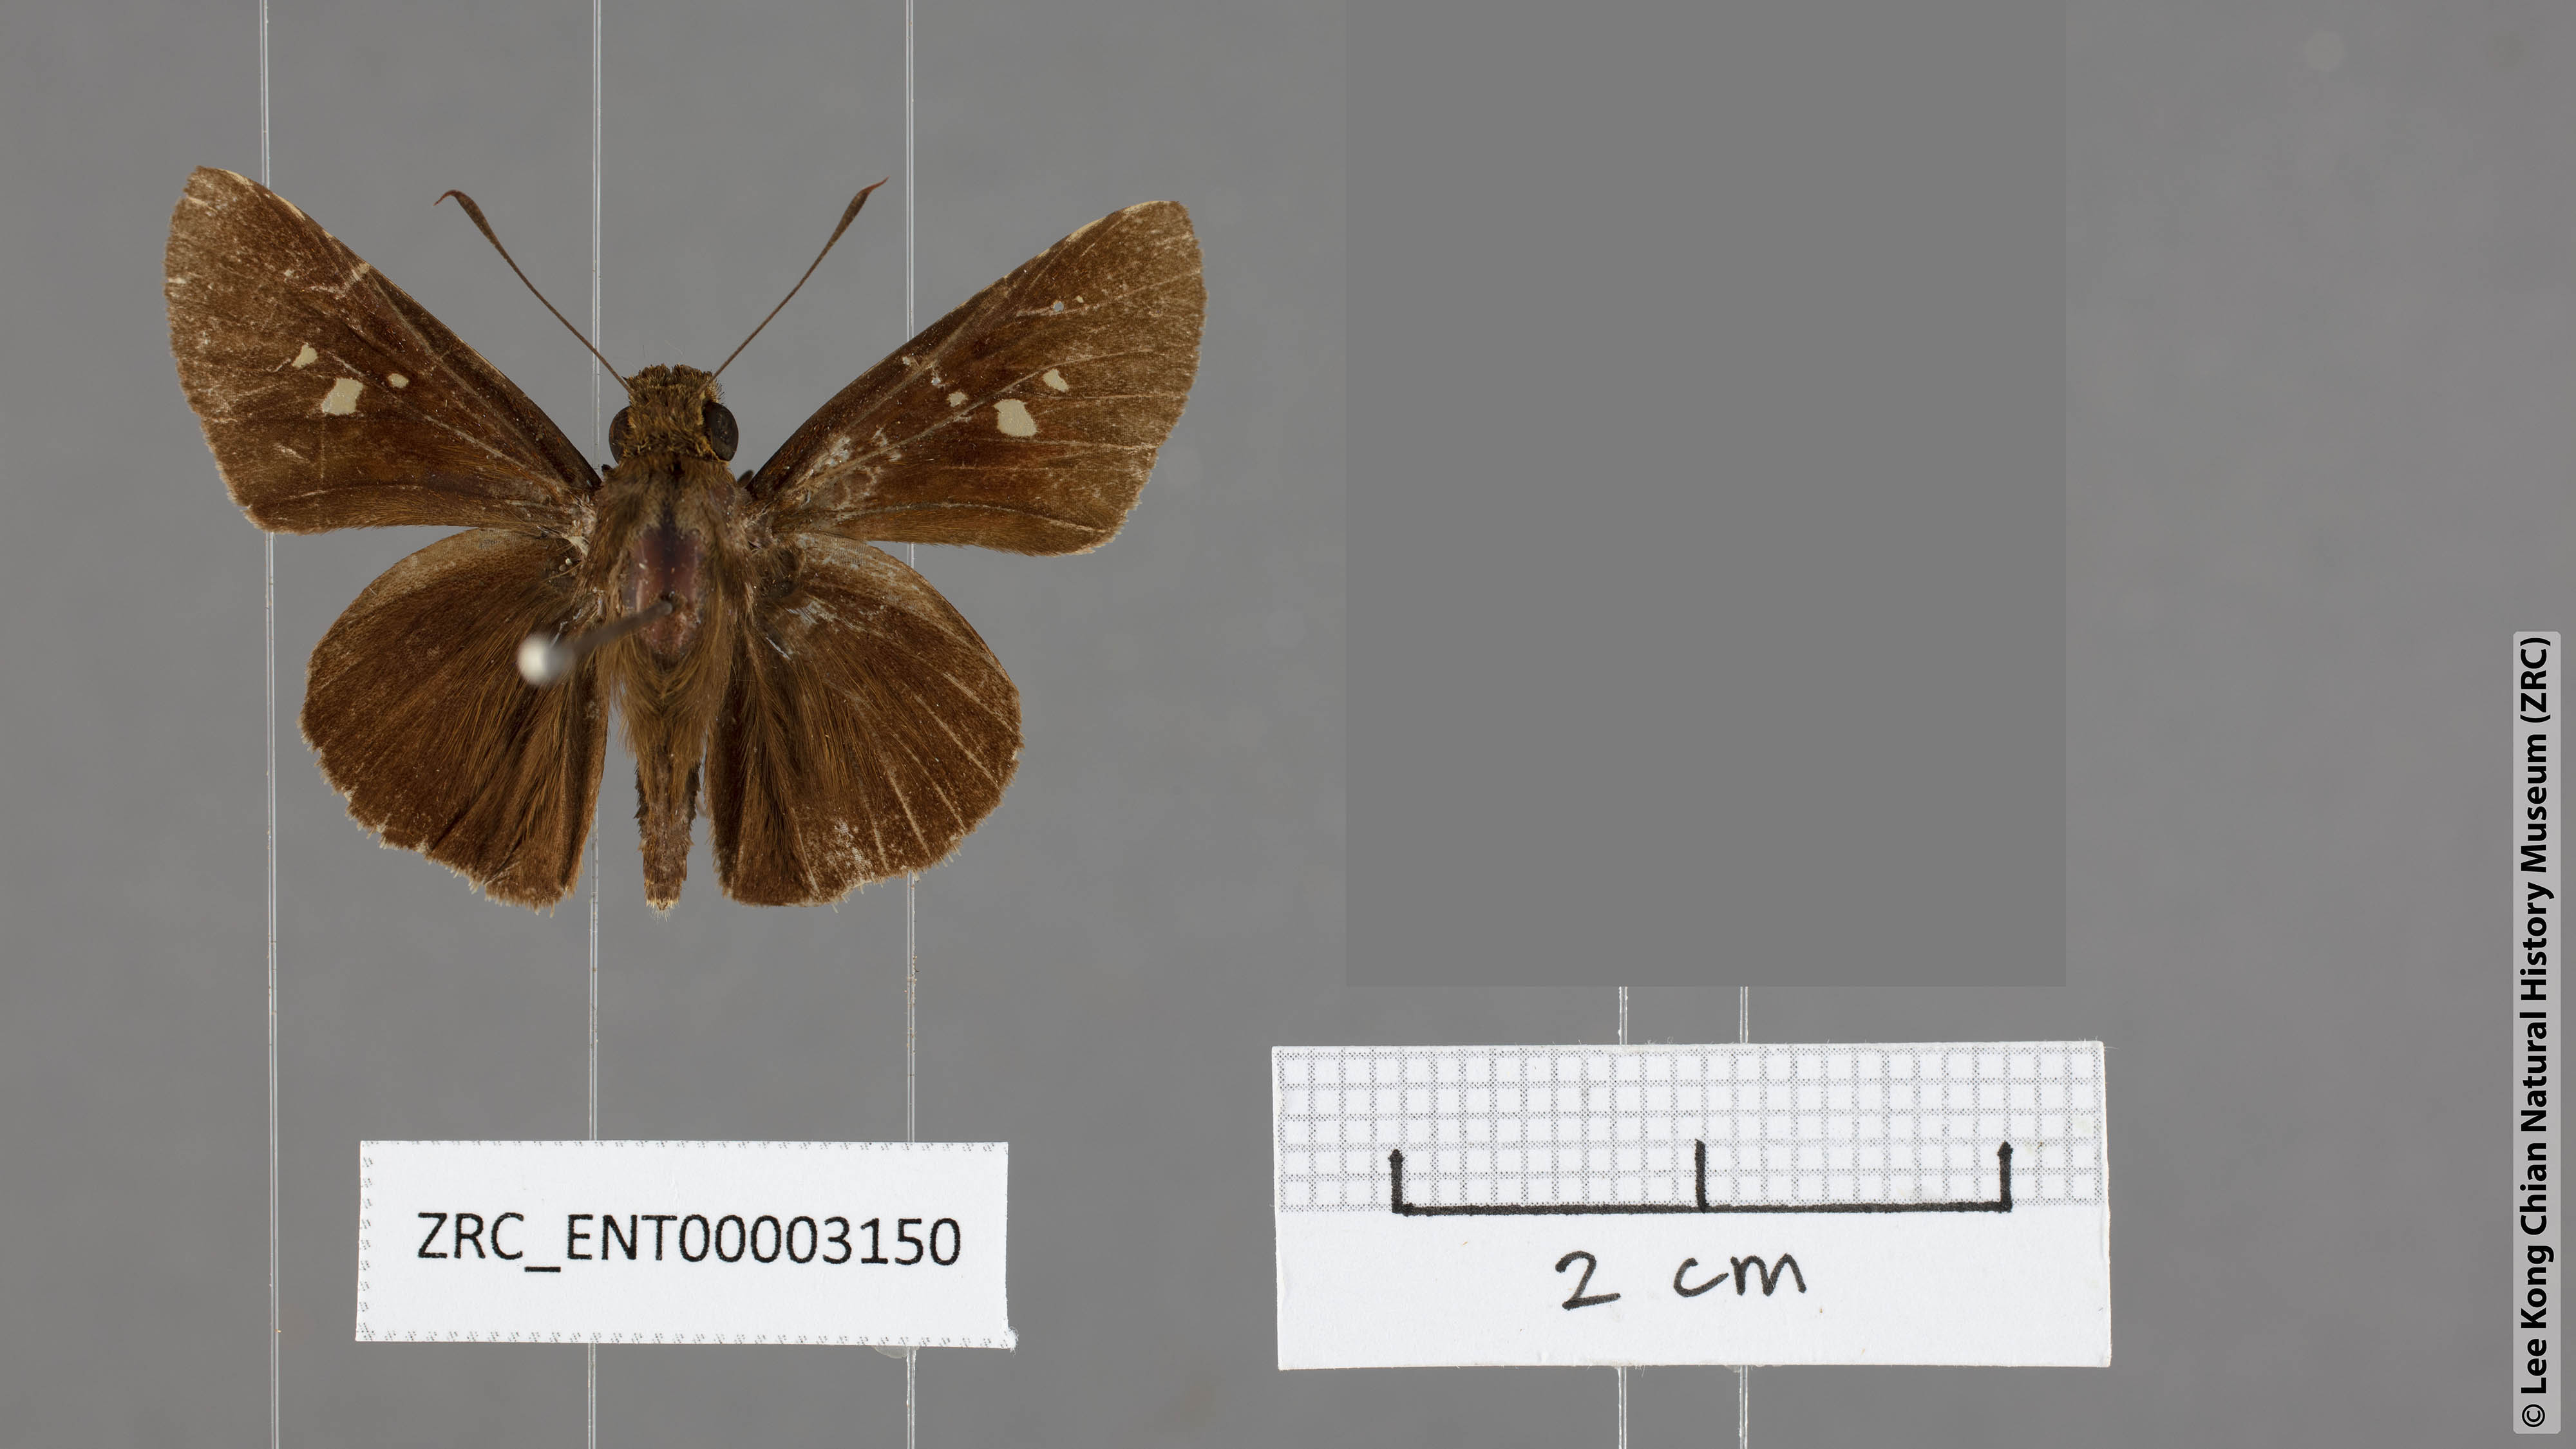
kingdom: Animalia
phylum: Arthropoda
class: Insecta
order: Lepidoptera
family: Hesperiidae
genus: Caltoris
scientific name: Caltoris cahira
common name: Colon swift
